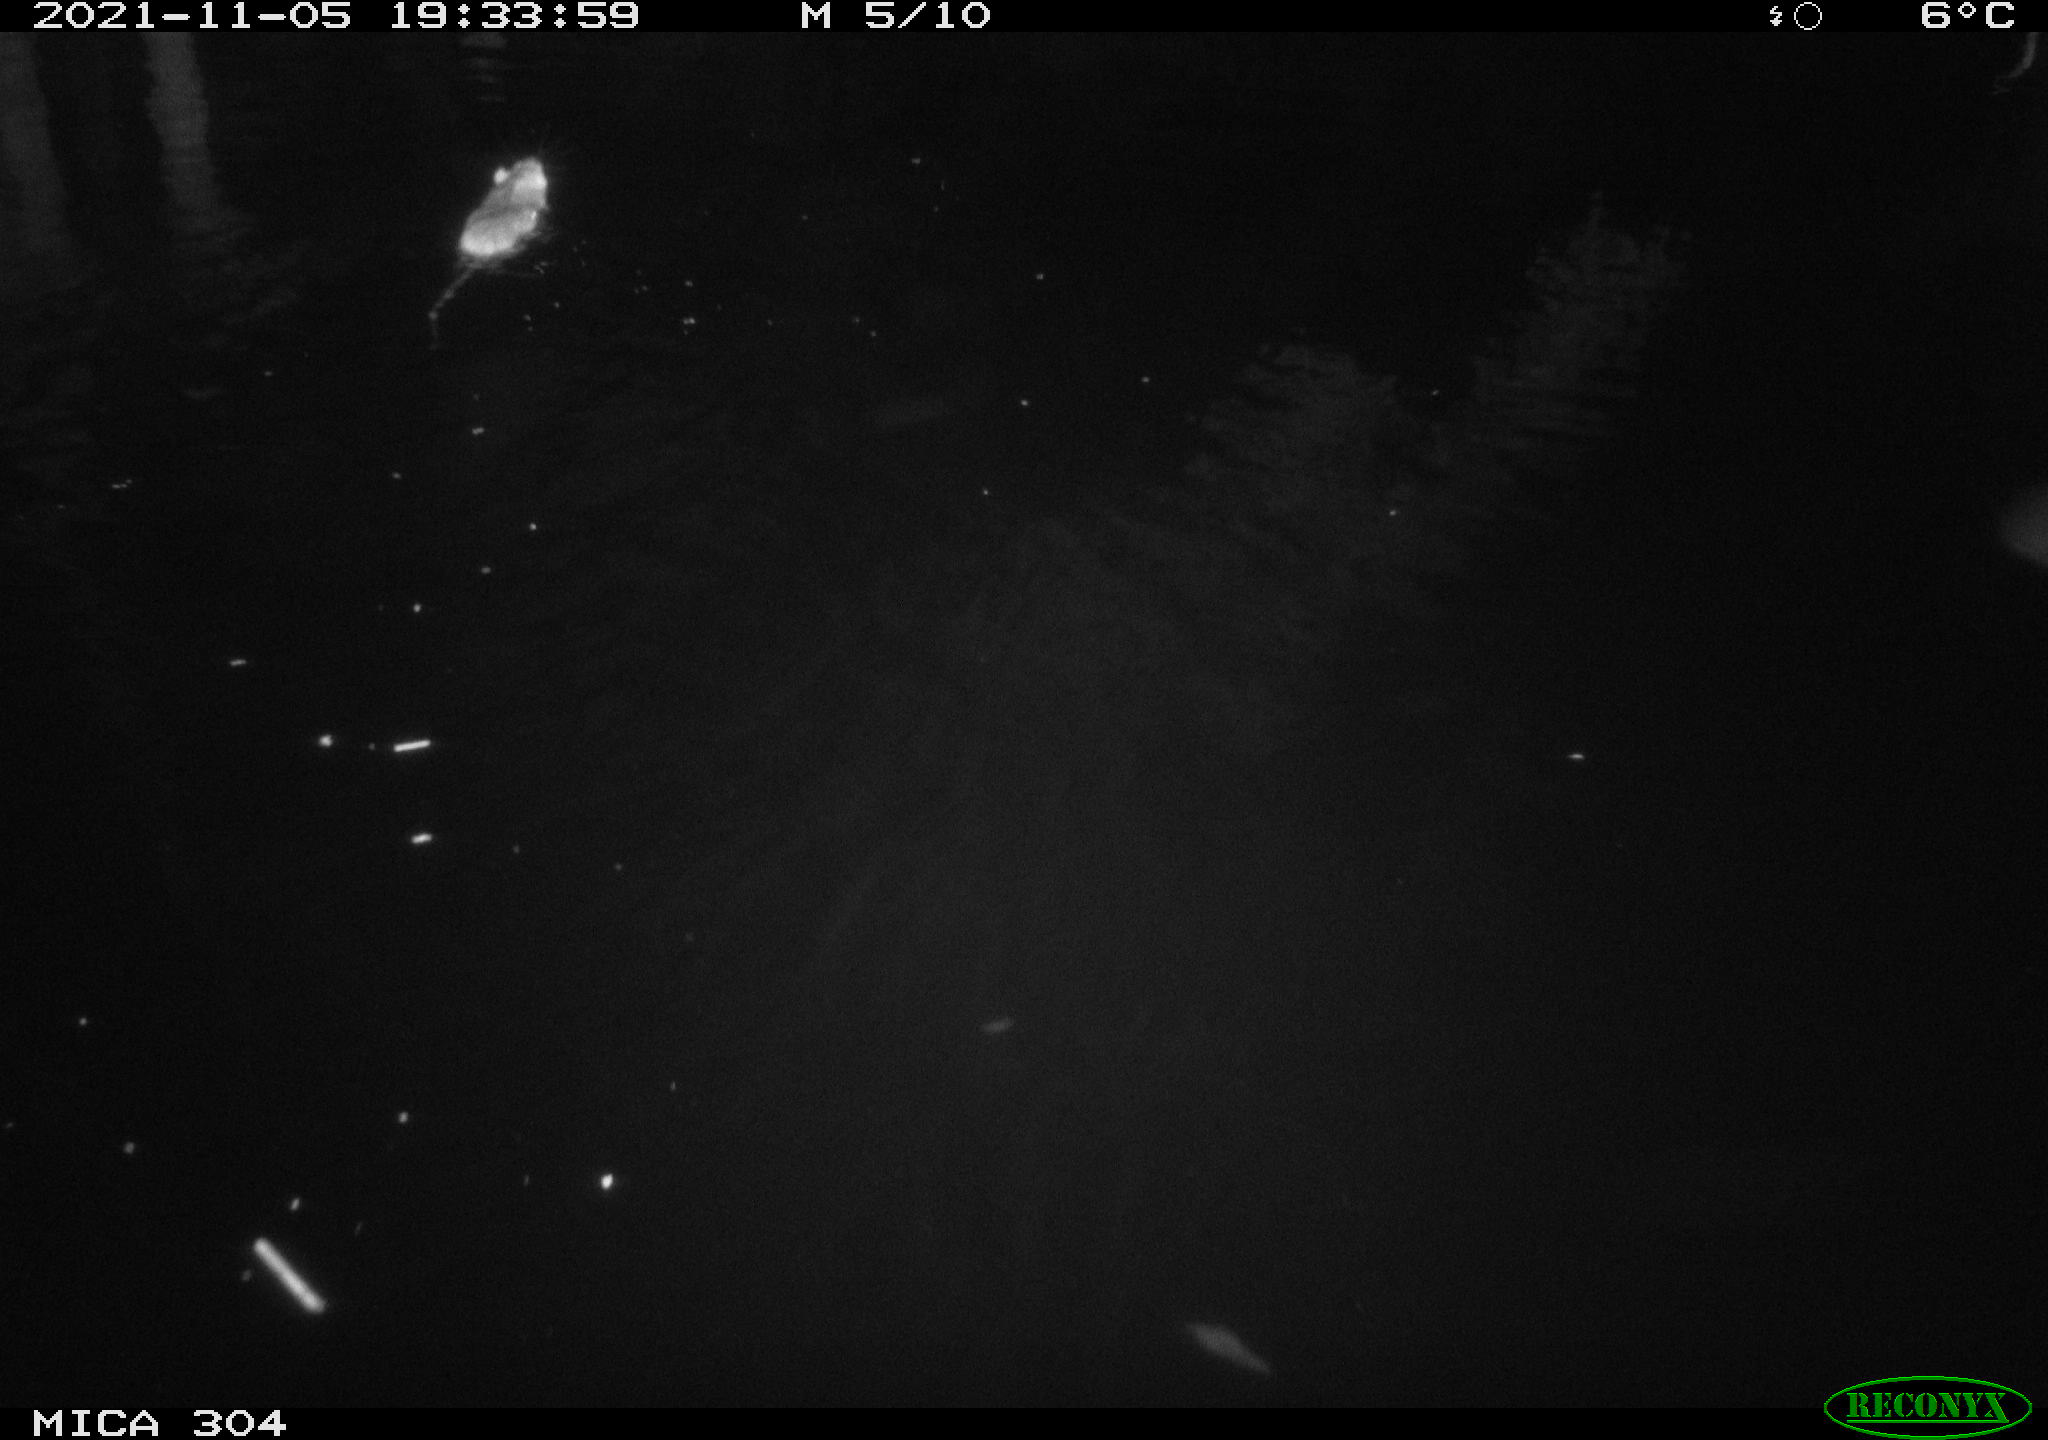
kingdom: Animalia
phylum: Chordata
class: Mammalia
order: Rodentia
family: Muridae
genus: Rattus
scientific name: Rattus norvegicus
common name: Brown rat
